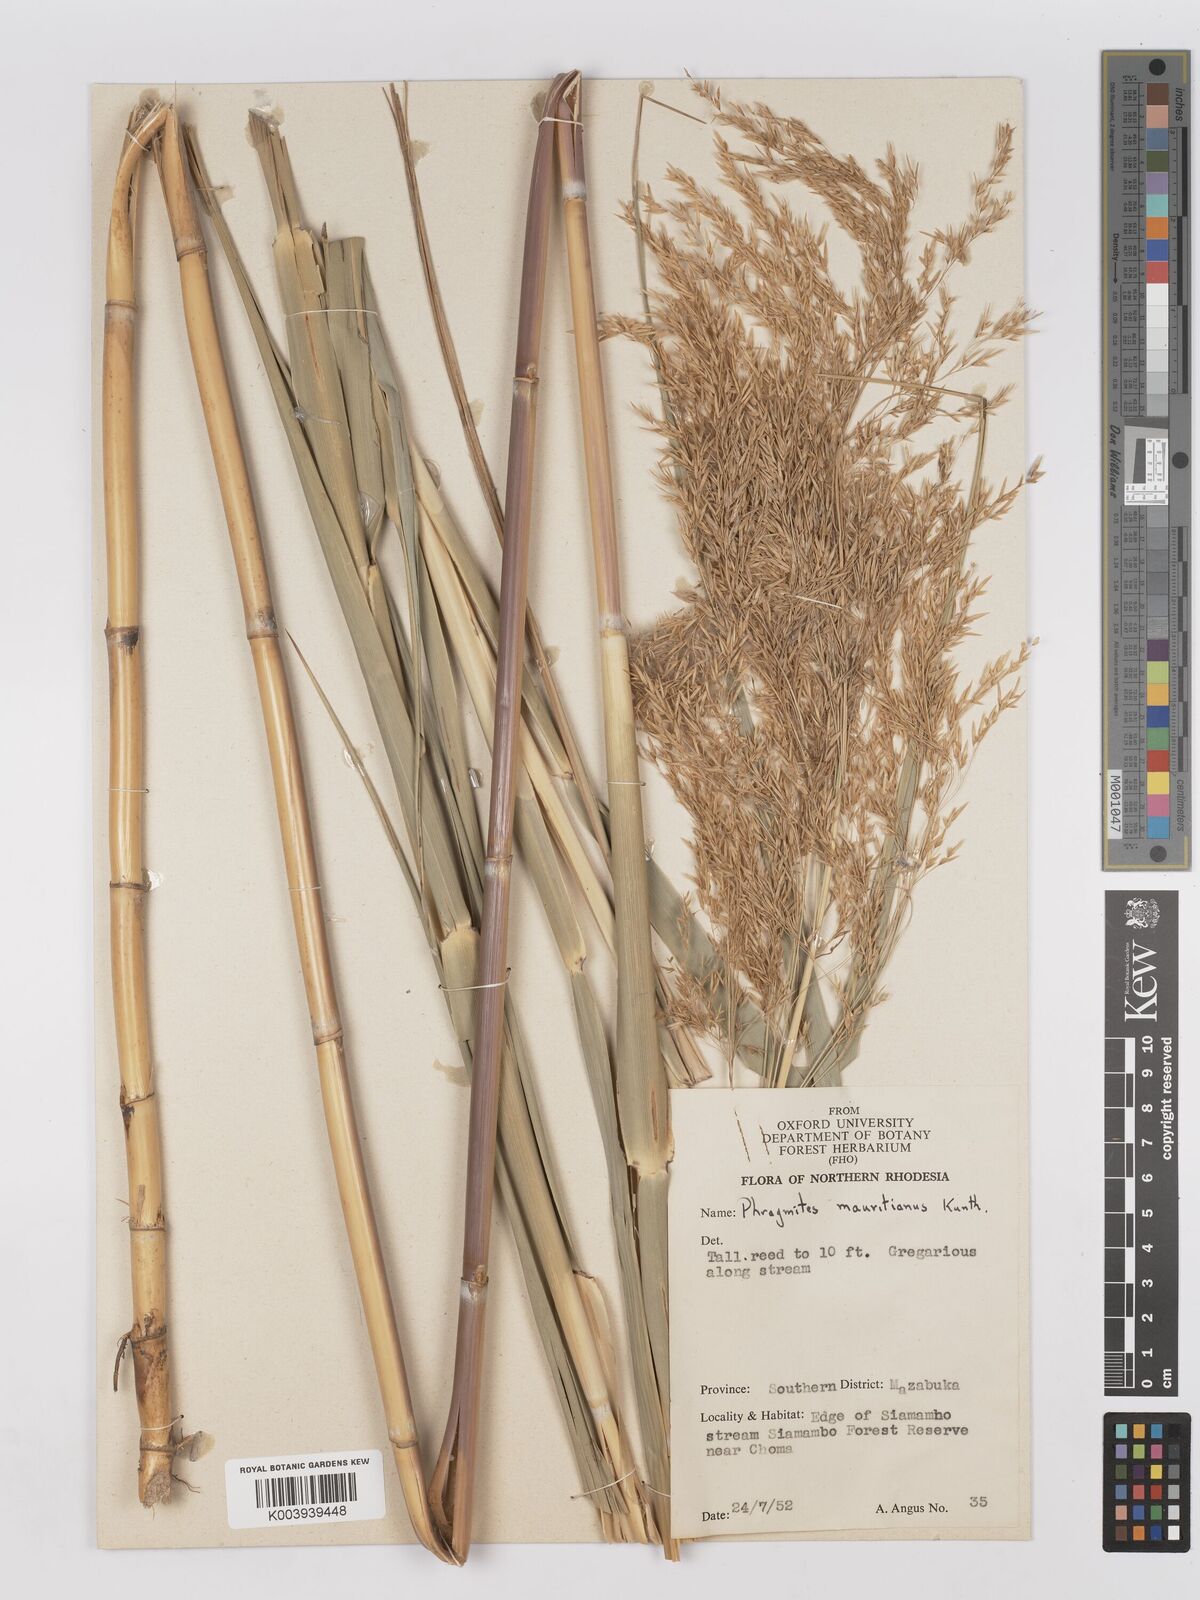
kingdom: Plantae
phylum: Tracheophyta
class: Liliopsida
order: Poales
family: Poaceae
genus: Phragmites
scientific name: Phragmites mauritianus
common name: Reed grass
